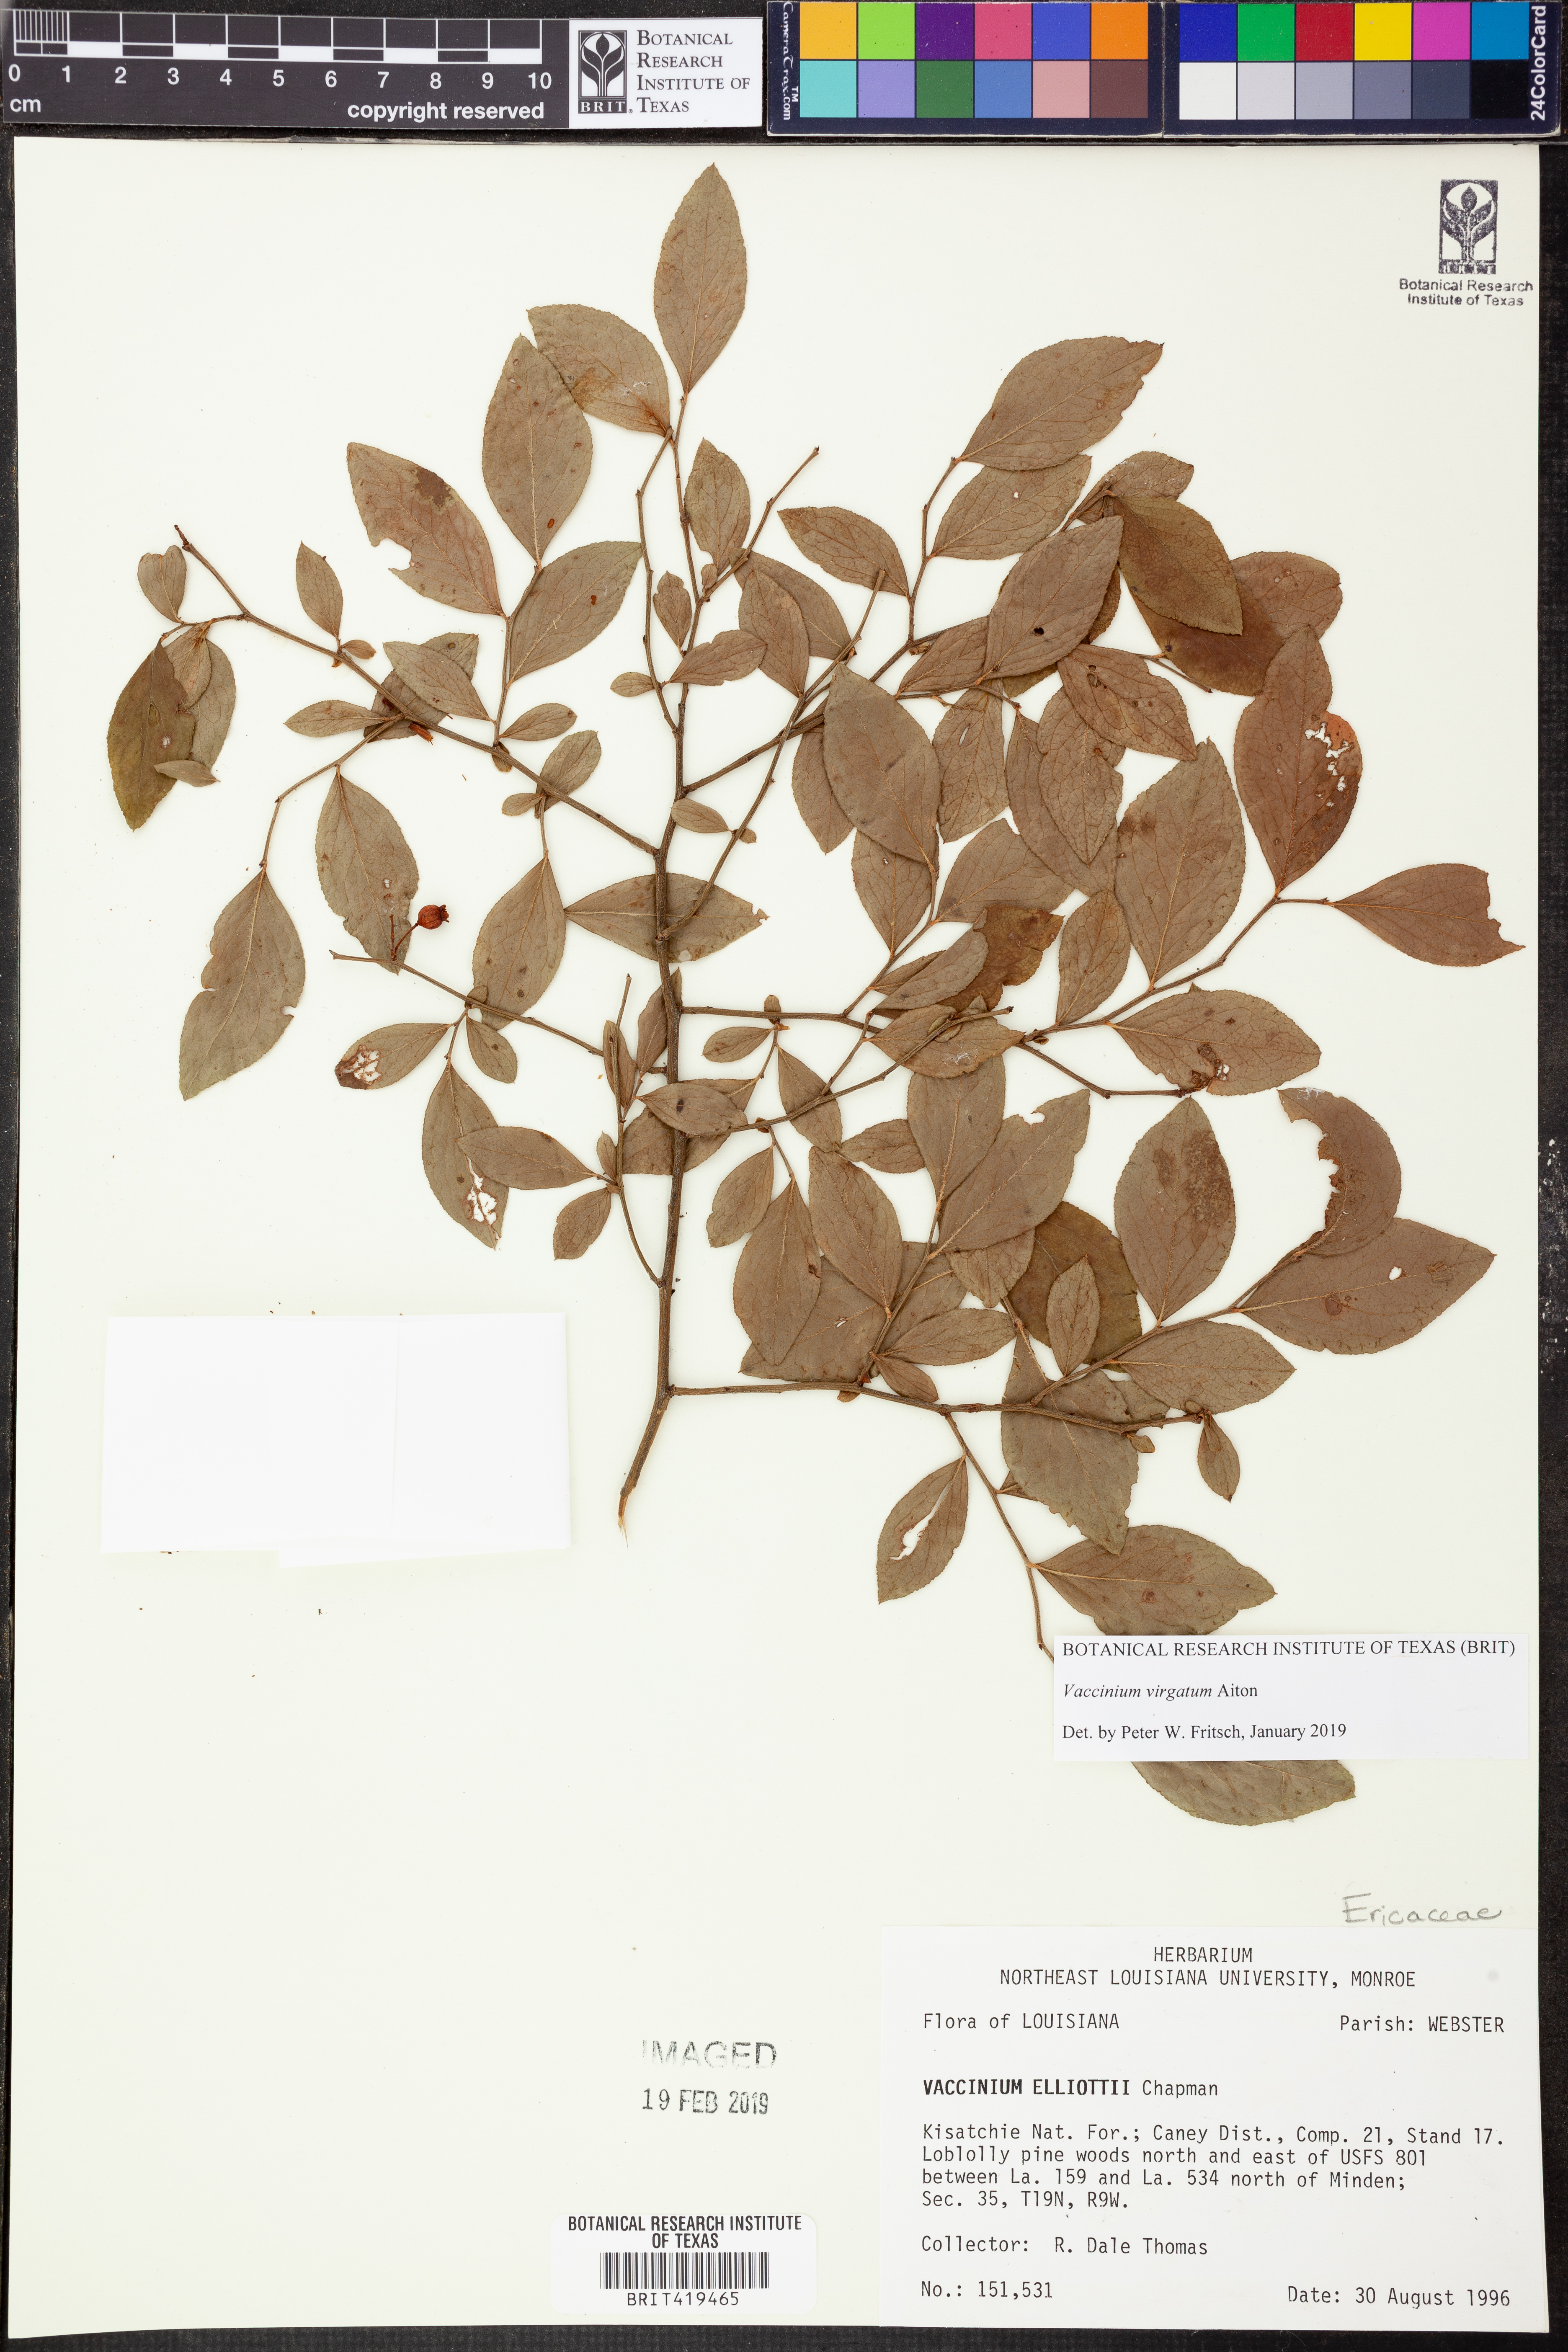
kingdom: Plantae
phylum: Tracheophyta
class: Magnoliopsida
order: Ericales
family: Ericaceae
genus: Vaccinium
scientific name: Vaccinium corymbosum
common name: Blueberry
